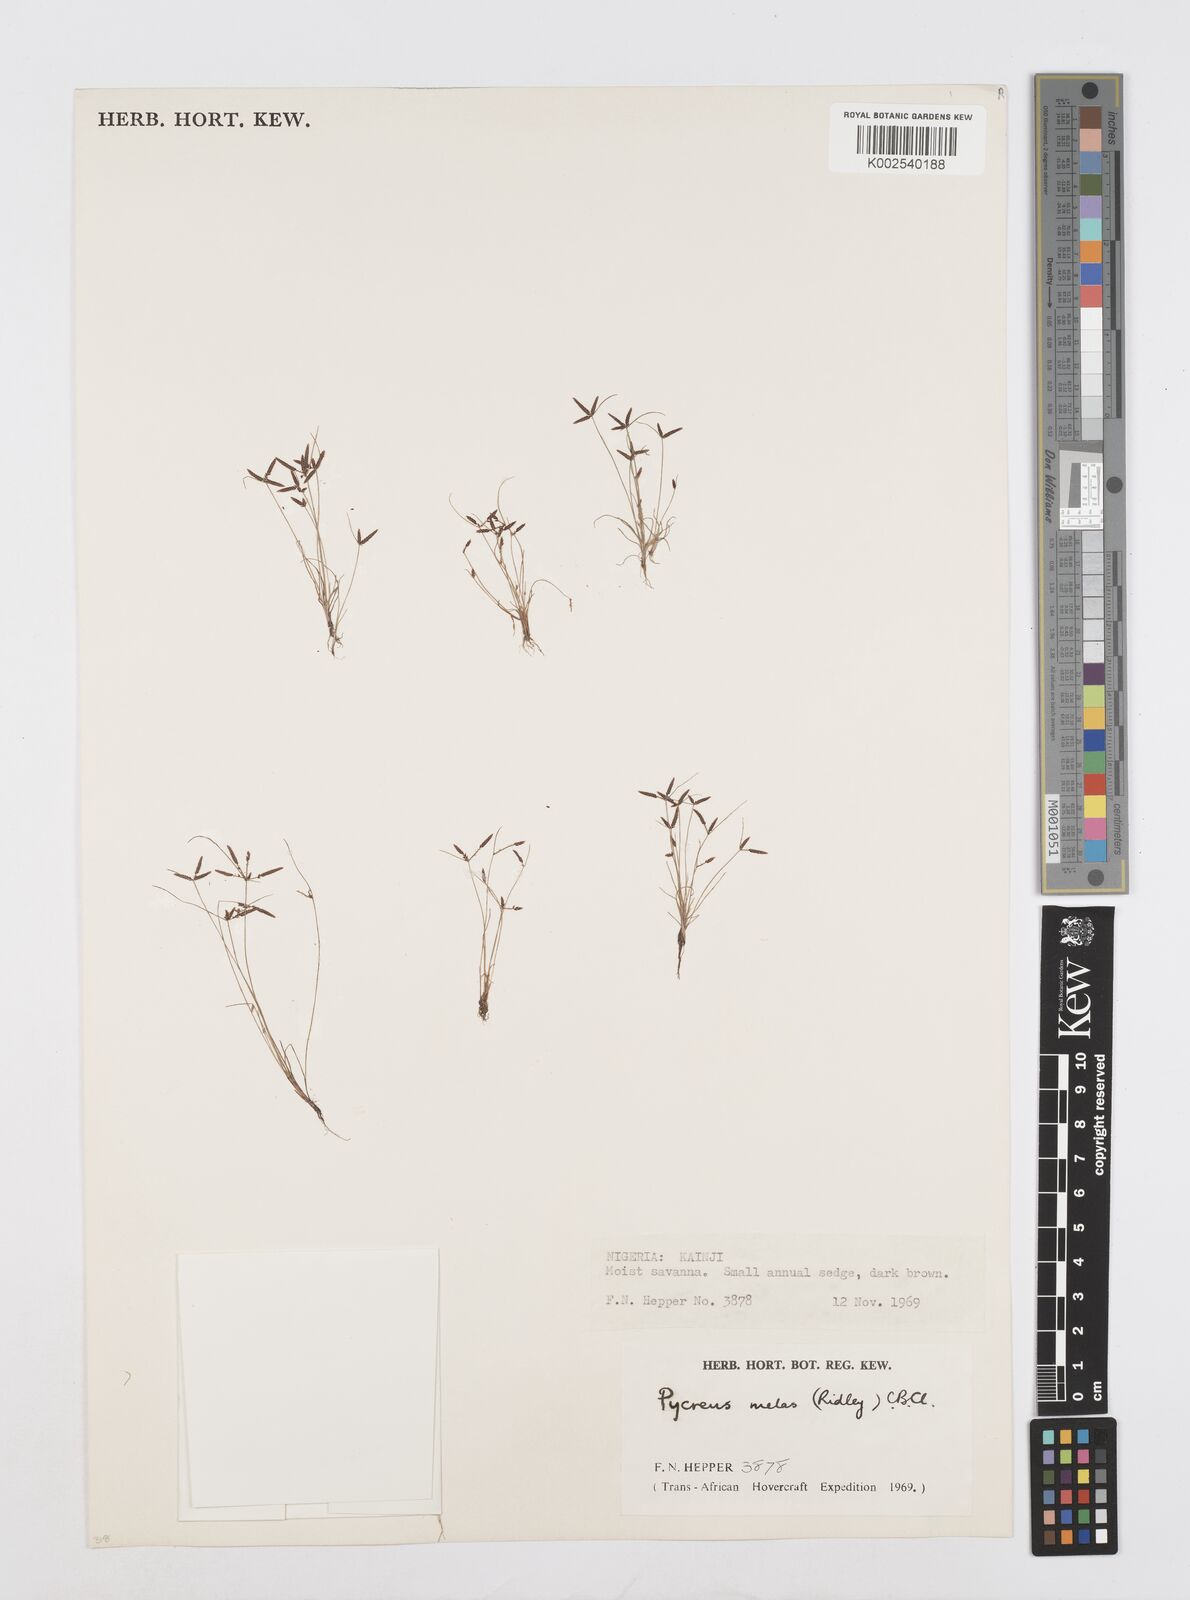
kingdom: Plantae
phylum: Tracheophyta
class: Liliopsida
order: Poales
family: Cyperaceae
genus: Cyperus
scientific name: Cyperus melas
